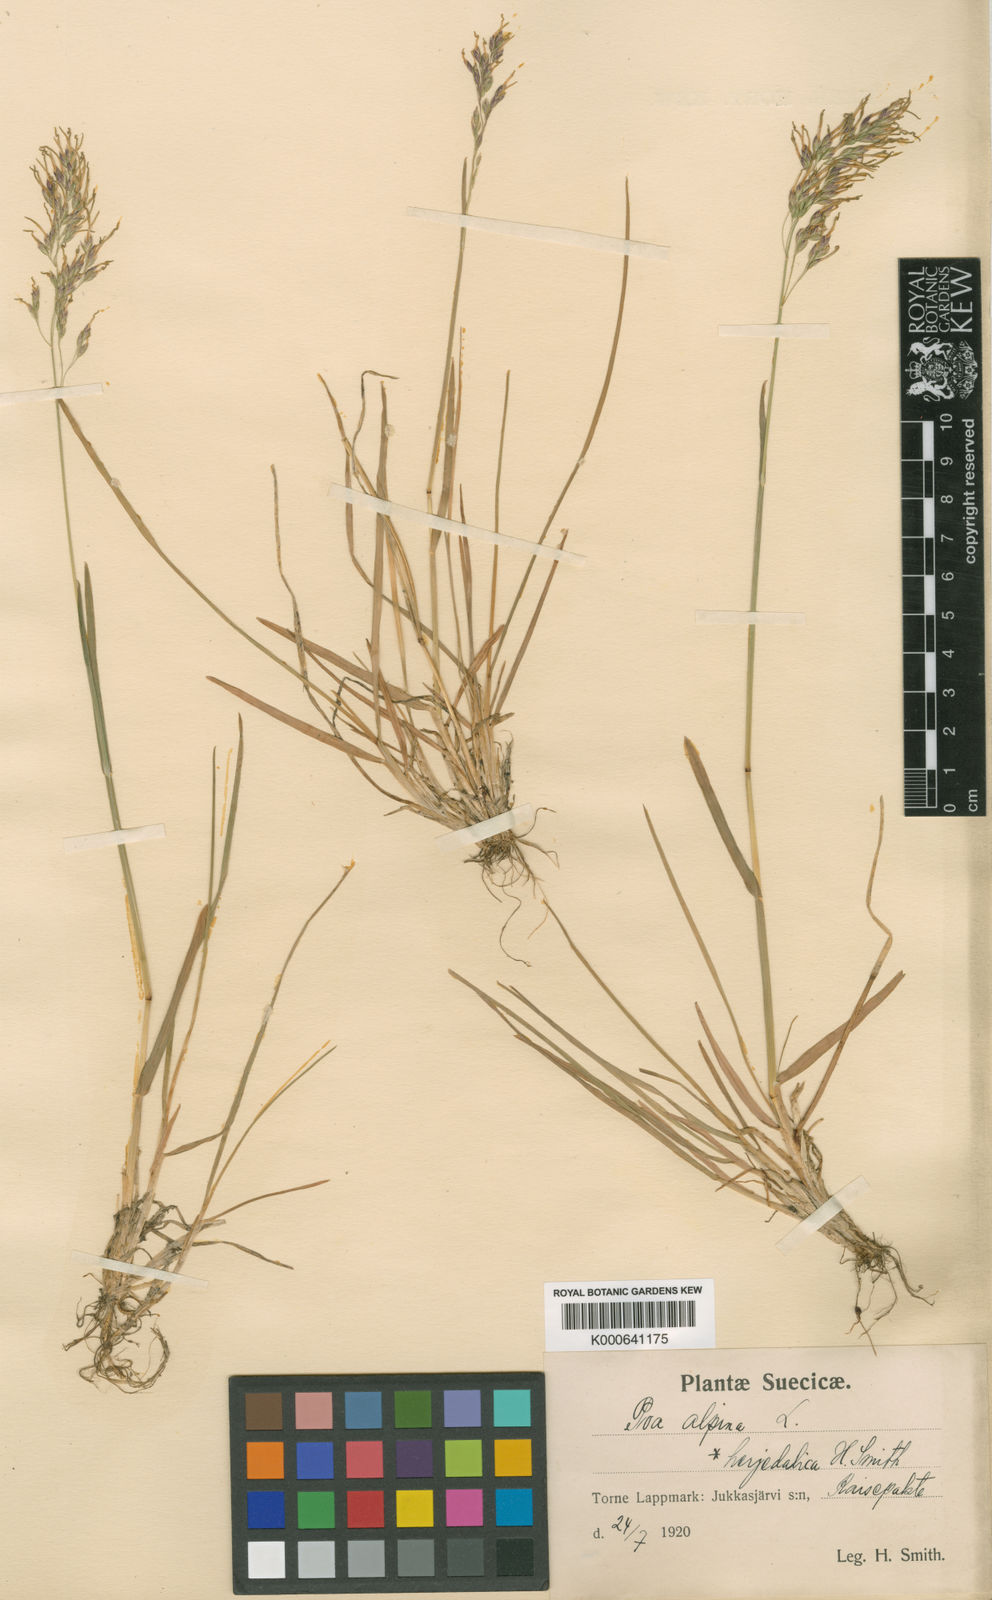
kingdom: Plantae
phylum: Tracheophyta
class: Liliopsida
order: Poales
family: Poaceae
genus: Poa
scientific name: Poa herjedalica
